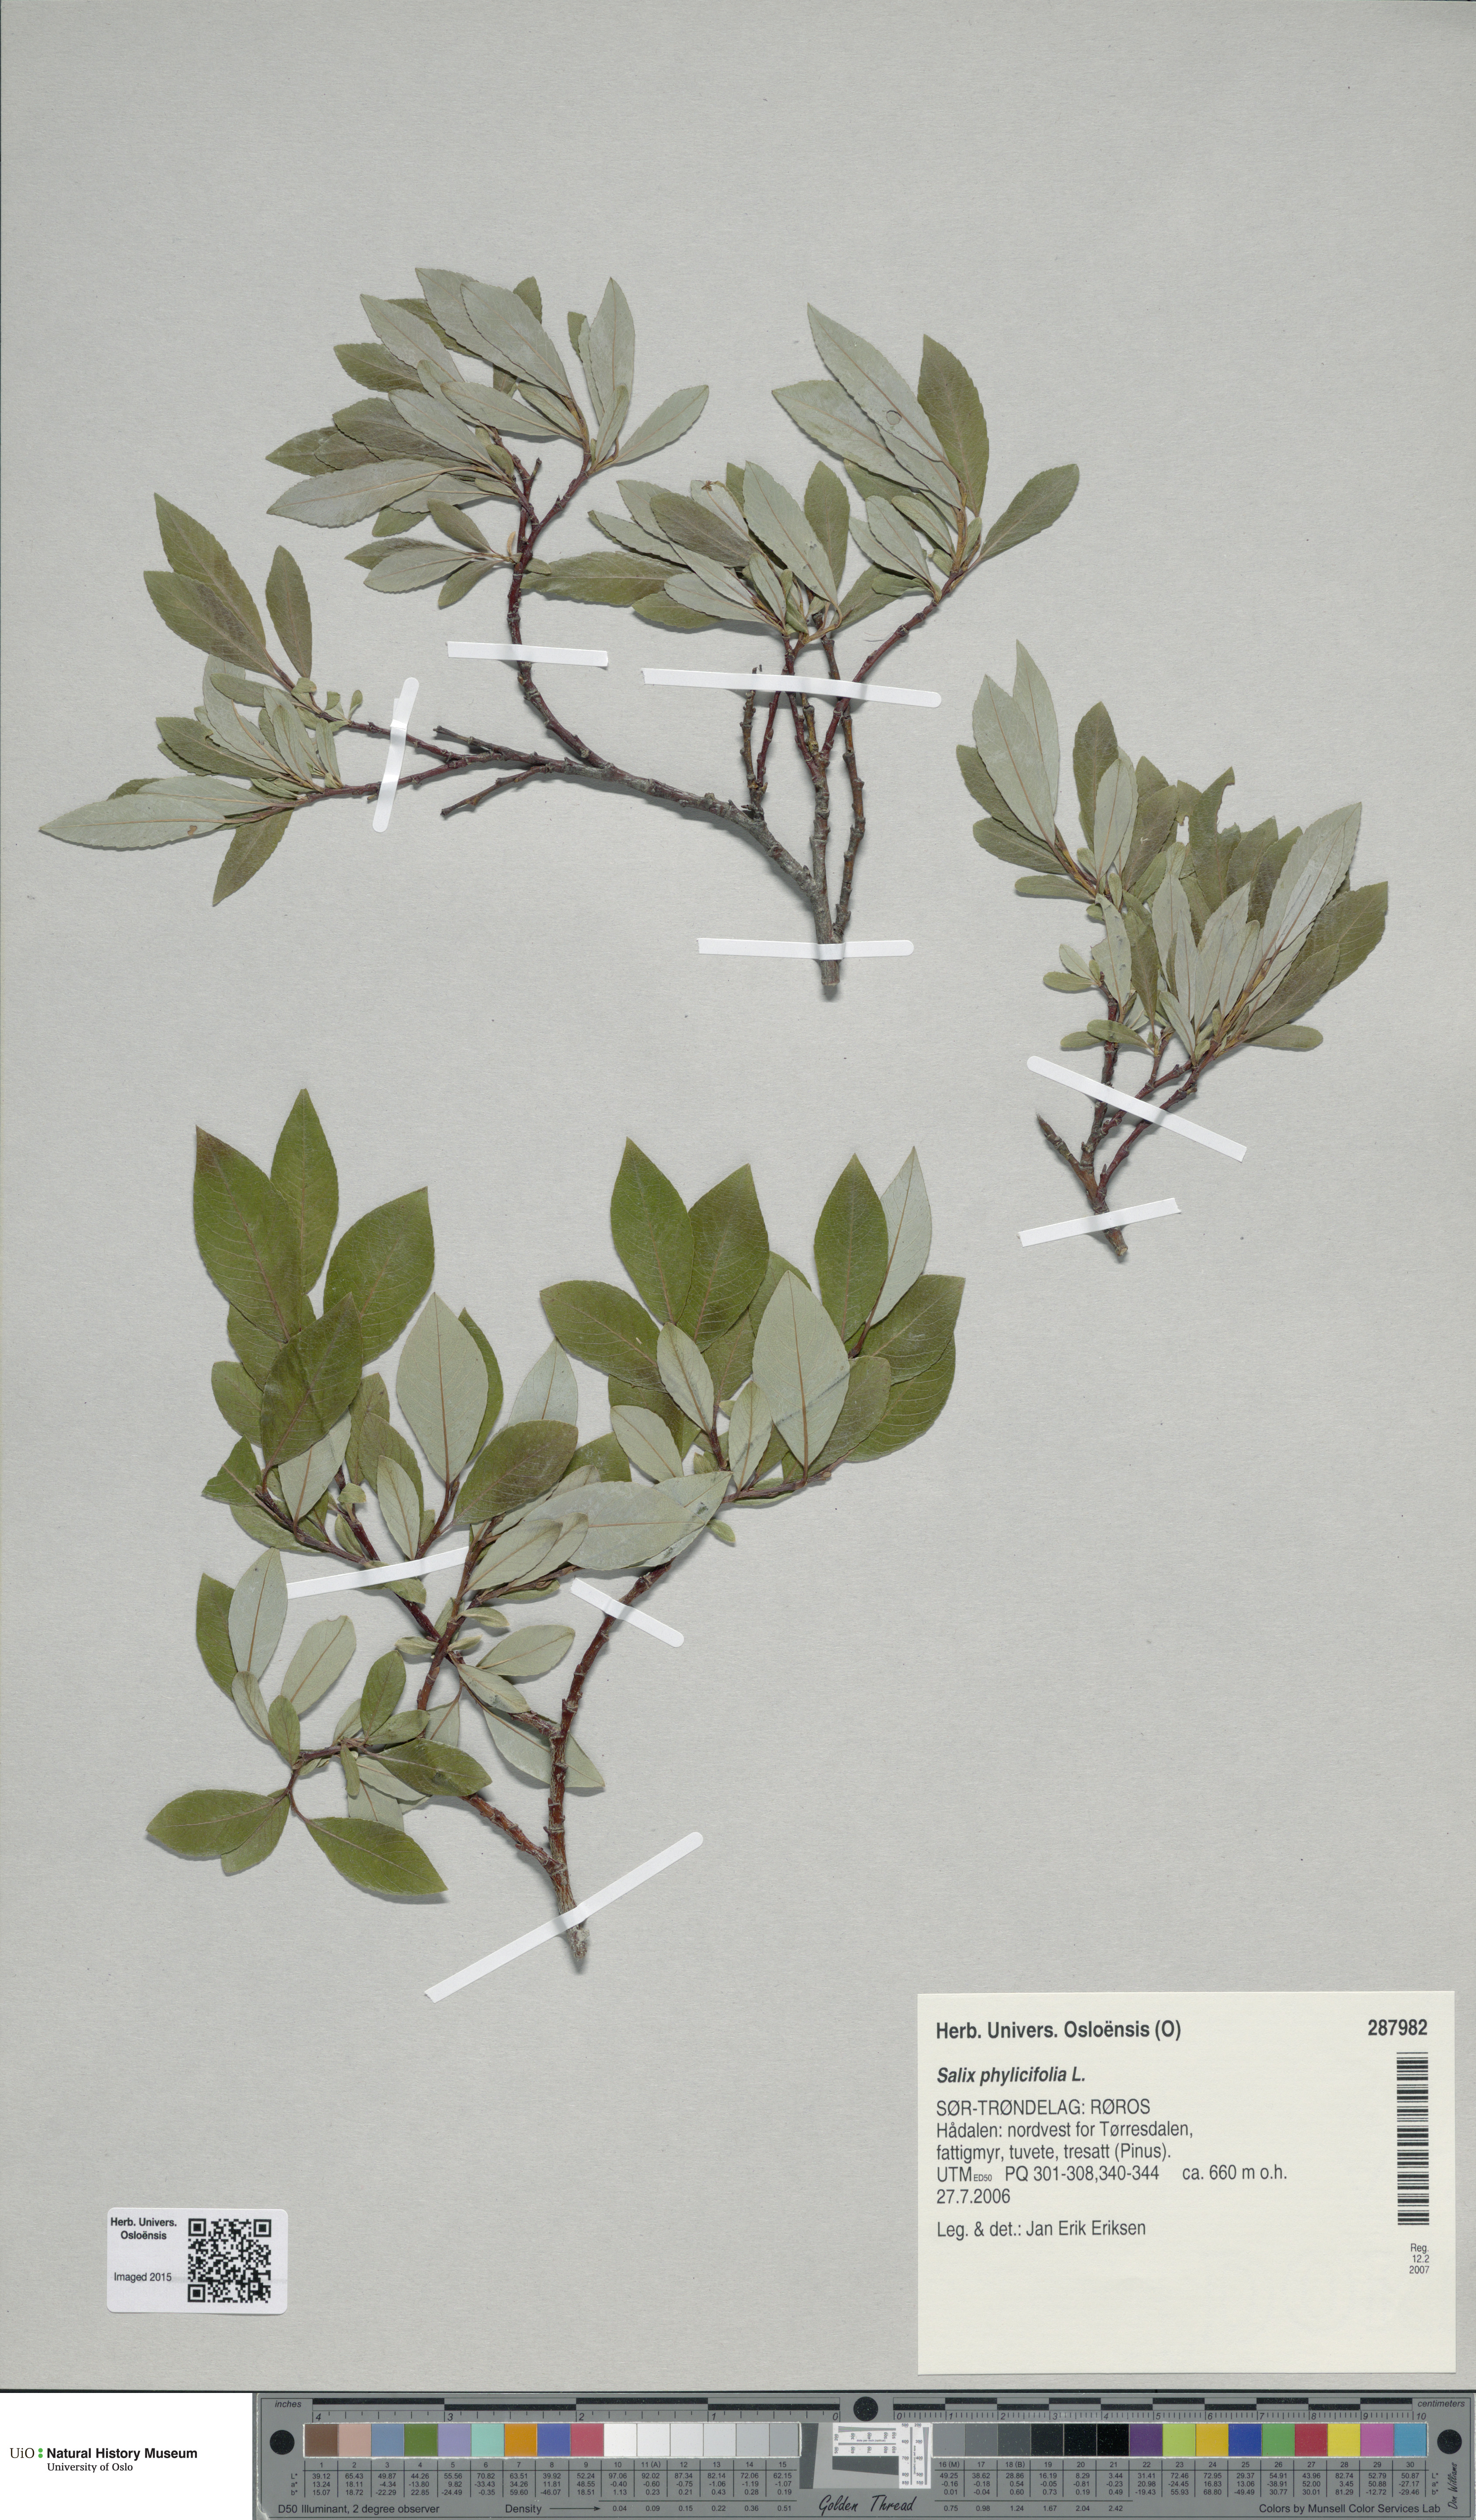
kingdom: Plantae
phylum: Tracheophyta
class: Magnoliopsida
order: Malpighiales
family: Salicaceae
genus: Salix
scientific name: Salix phylicifolia
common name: Tea-leaved willow
